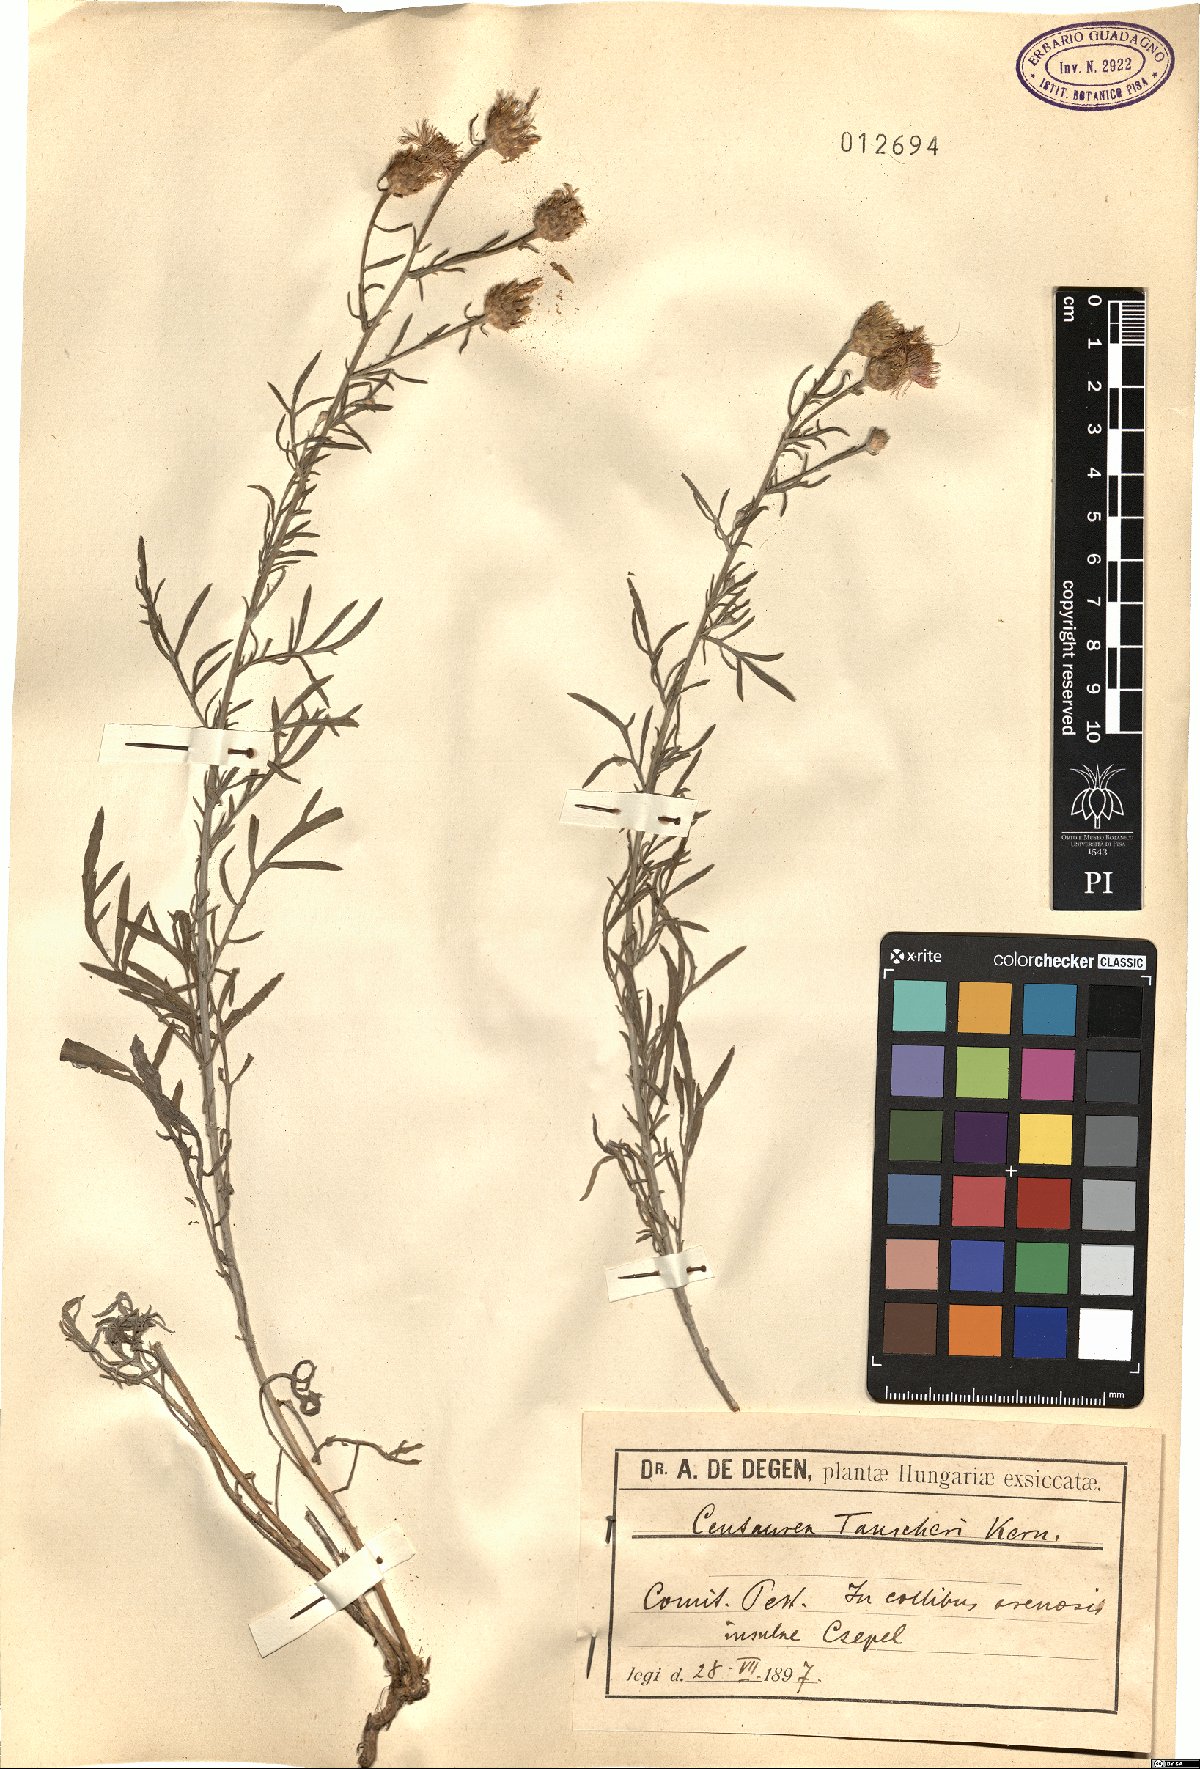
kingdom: Plantae
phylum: Tracheophyta
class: Magnoliopsida
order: Asterales
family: Asteraceae
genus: Centaurea
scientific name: Centaurea tauscheri
